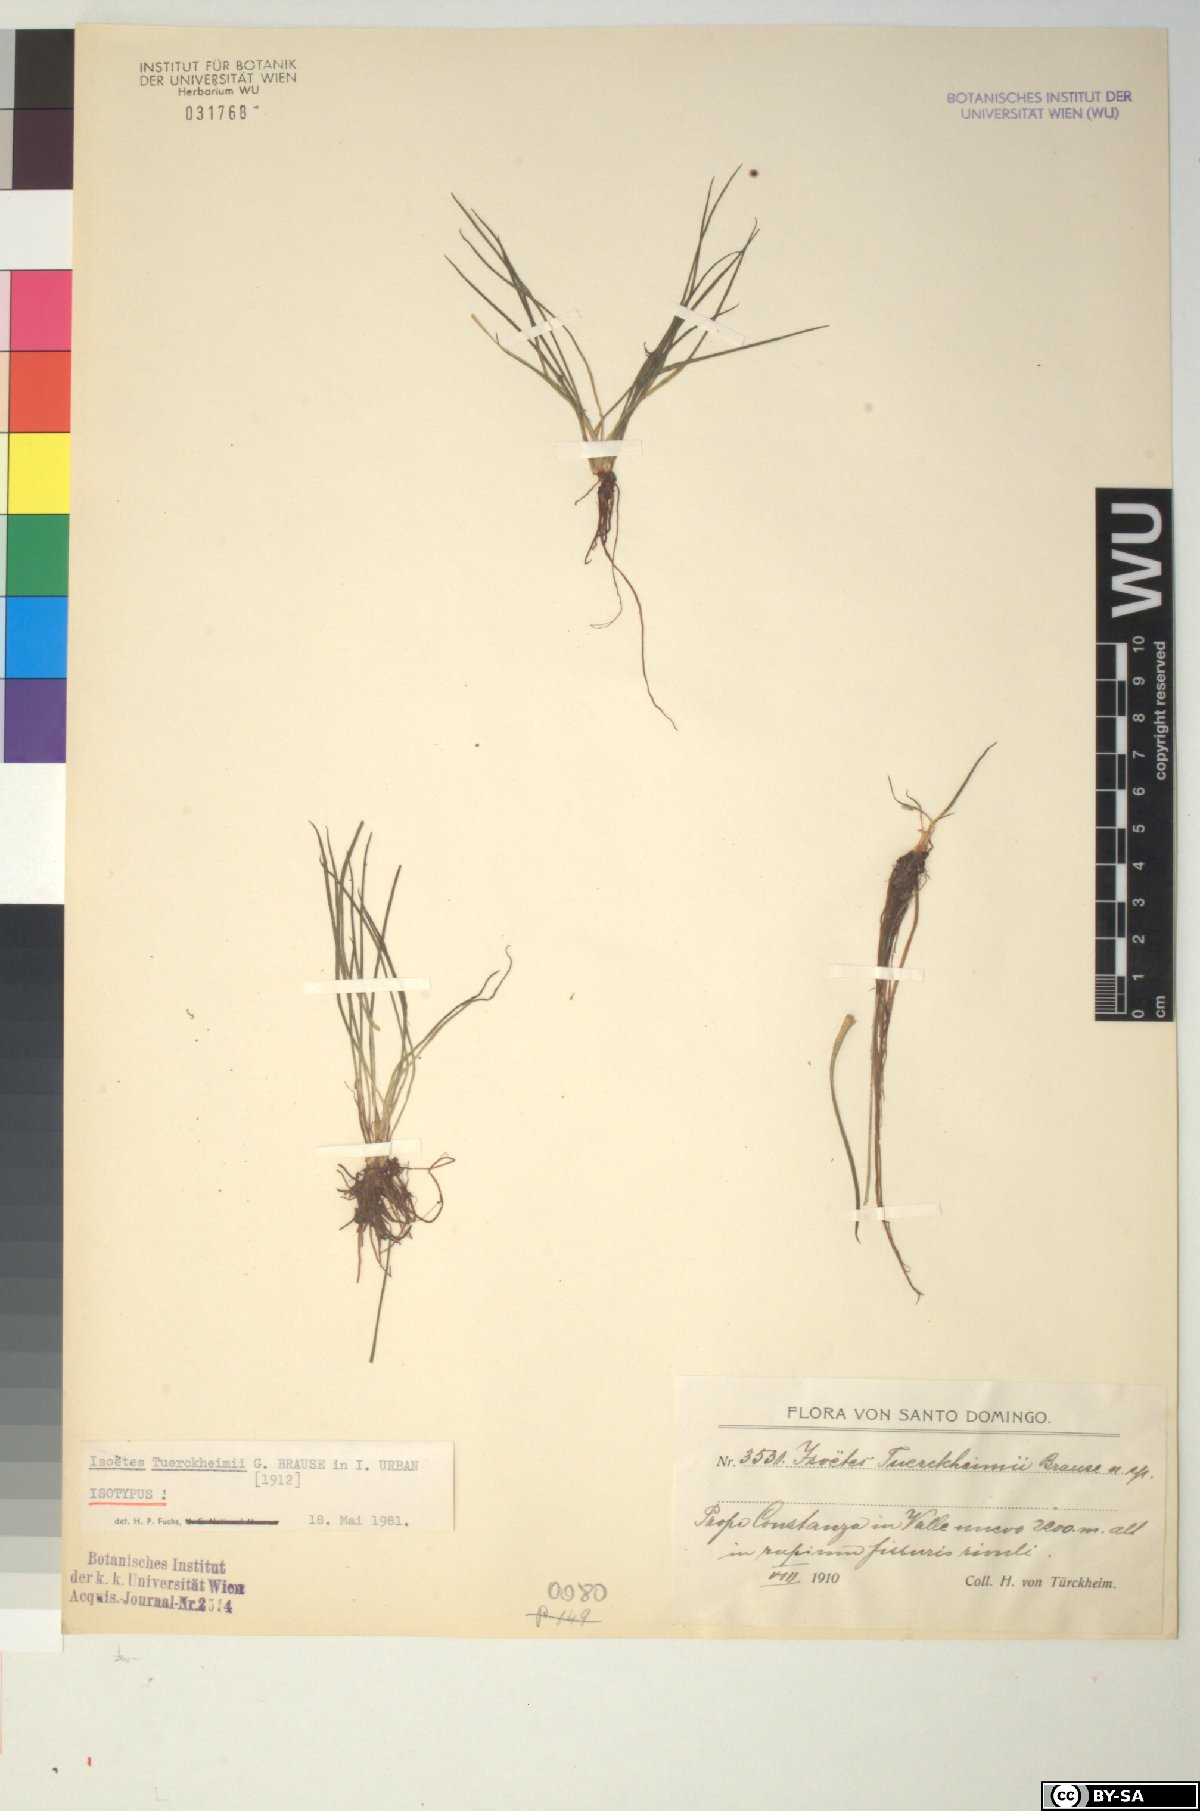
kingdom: Plantae
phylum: Tracheophyta
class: Lycopodiopsida
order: Isoetales
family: Isoetaceae
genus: Isoetes
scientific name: Isoetes tuerckheimii
